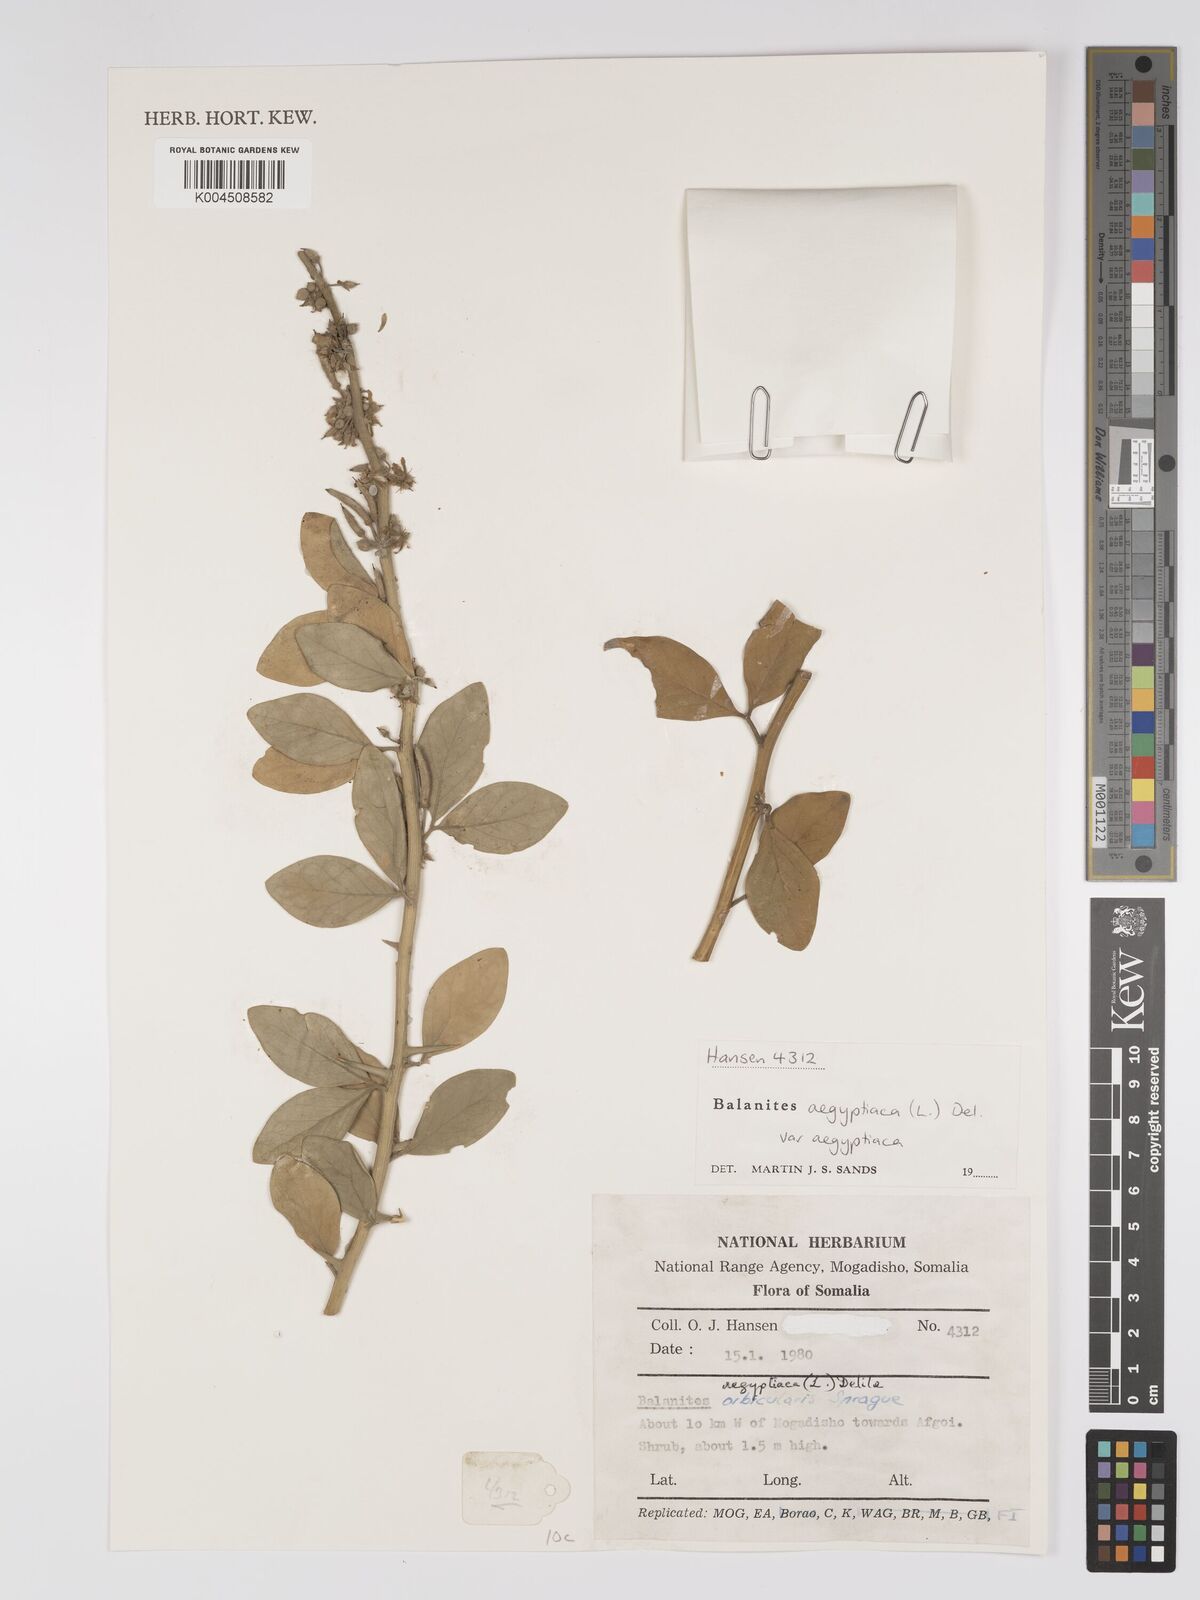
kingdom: Plantae
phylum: Tracheophyta
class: Magnoliopsida
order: Zygophyllales
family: Zygophyllaceae
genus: Balanites
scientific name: Balanites aegyptiaca
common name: Balanites
